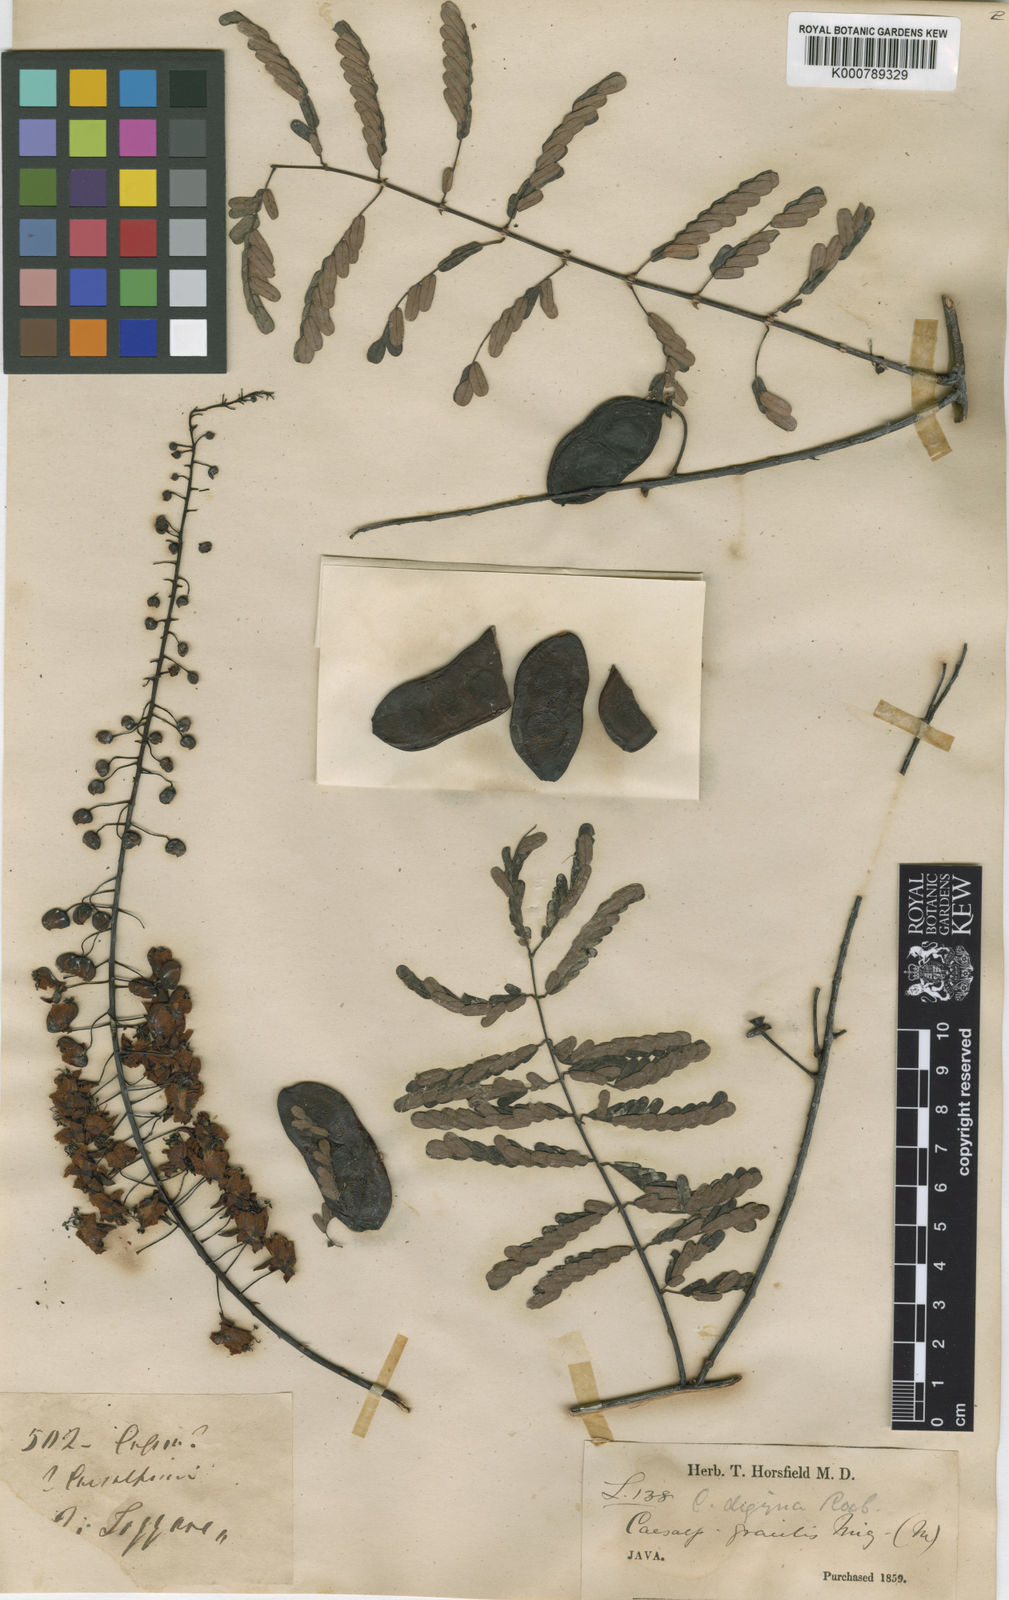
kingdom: Plantae
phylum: Tracheophyta
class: Magnoliopsida
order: Fabales
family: Fabaceae
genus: Caesalpinia
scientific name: Caesalpinia
